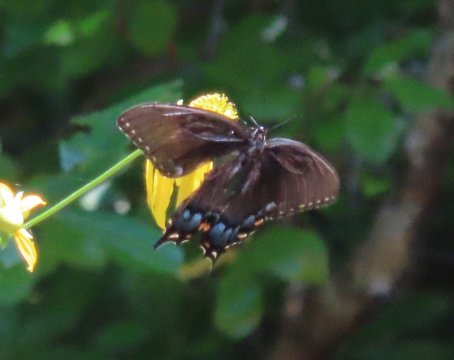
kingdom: Animalia
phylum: Arthropoda
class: Insecta
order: Lepidoptera
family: Papilionidae
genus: Pterourus
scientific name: Pterourus glaucus
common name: Eastern Tiger Swallowtail
